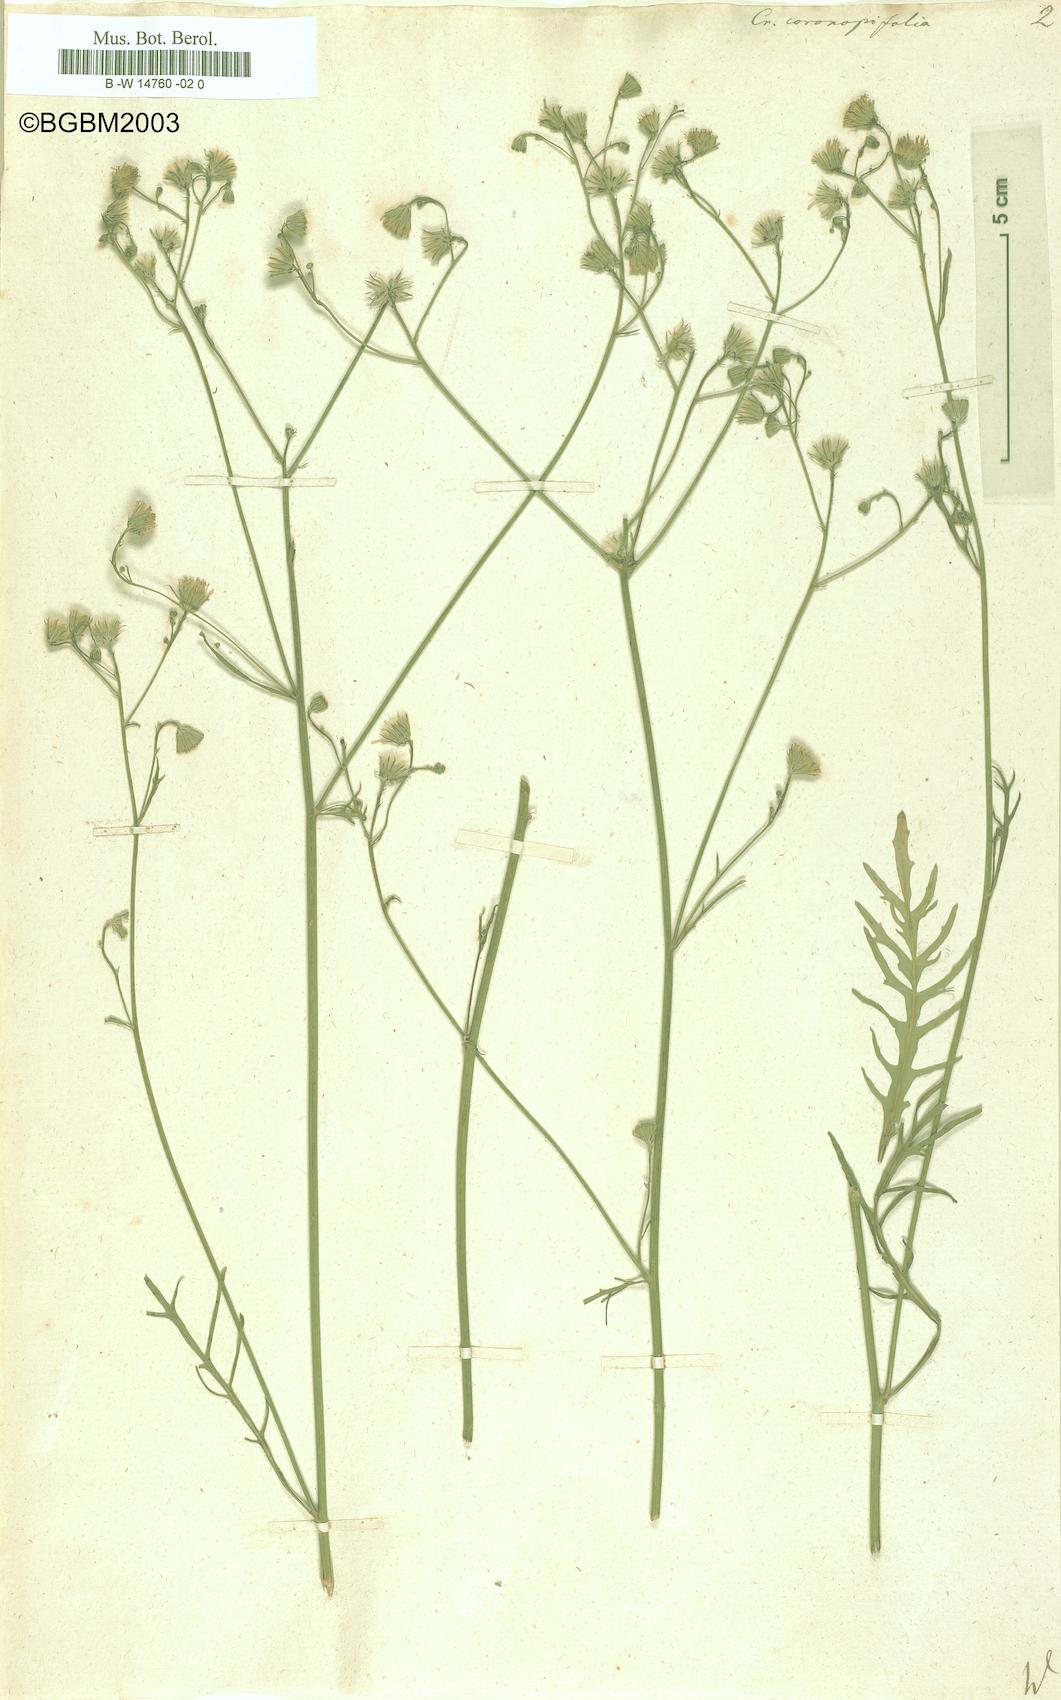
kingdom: Plantae
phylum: Tracheophyta
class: Magnoliopsida
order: Asterales
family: Asteraceae
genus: Tolpis
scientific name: Tolpis coronopifolia
